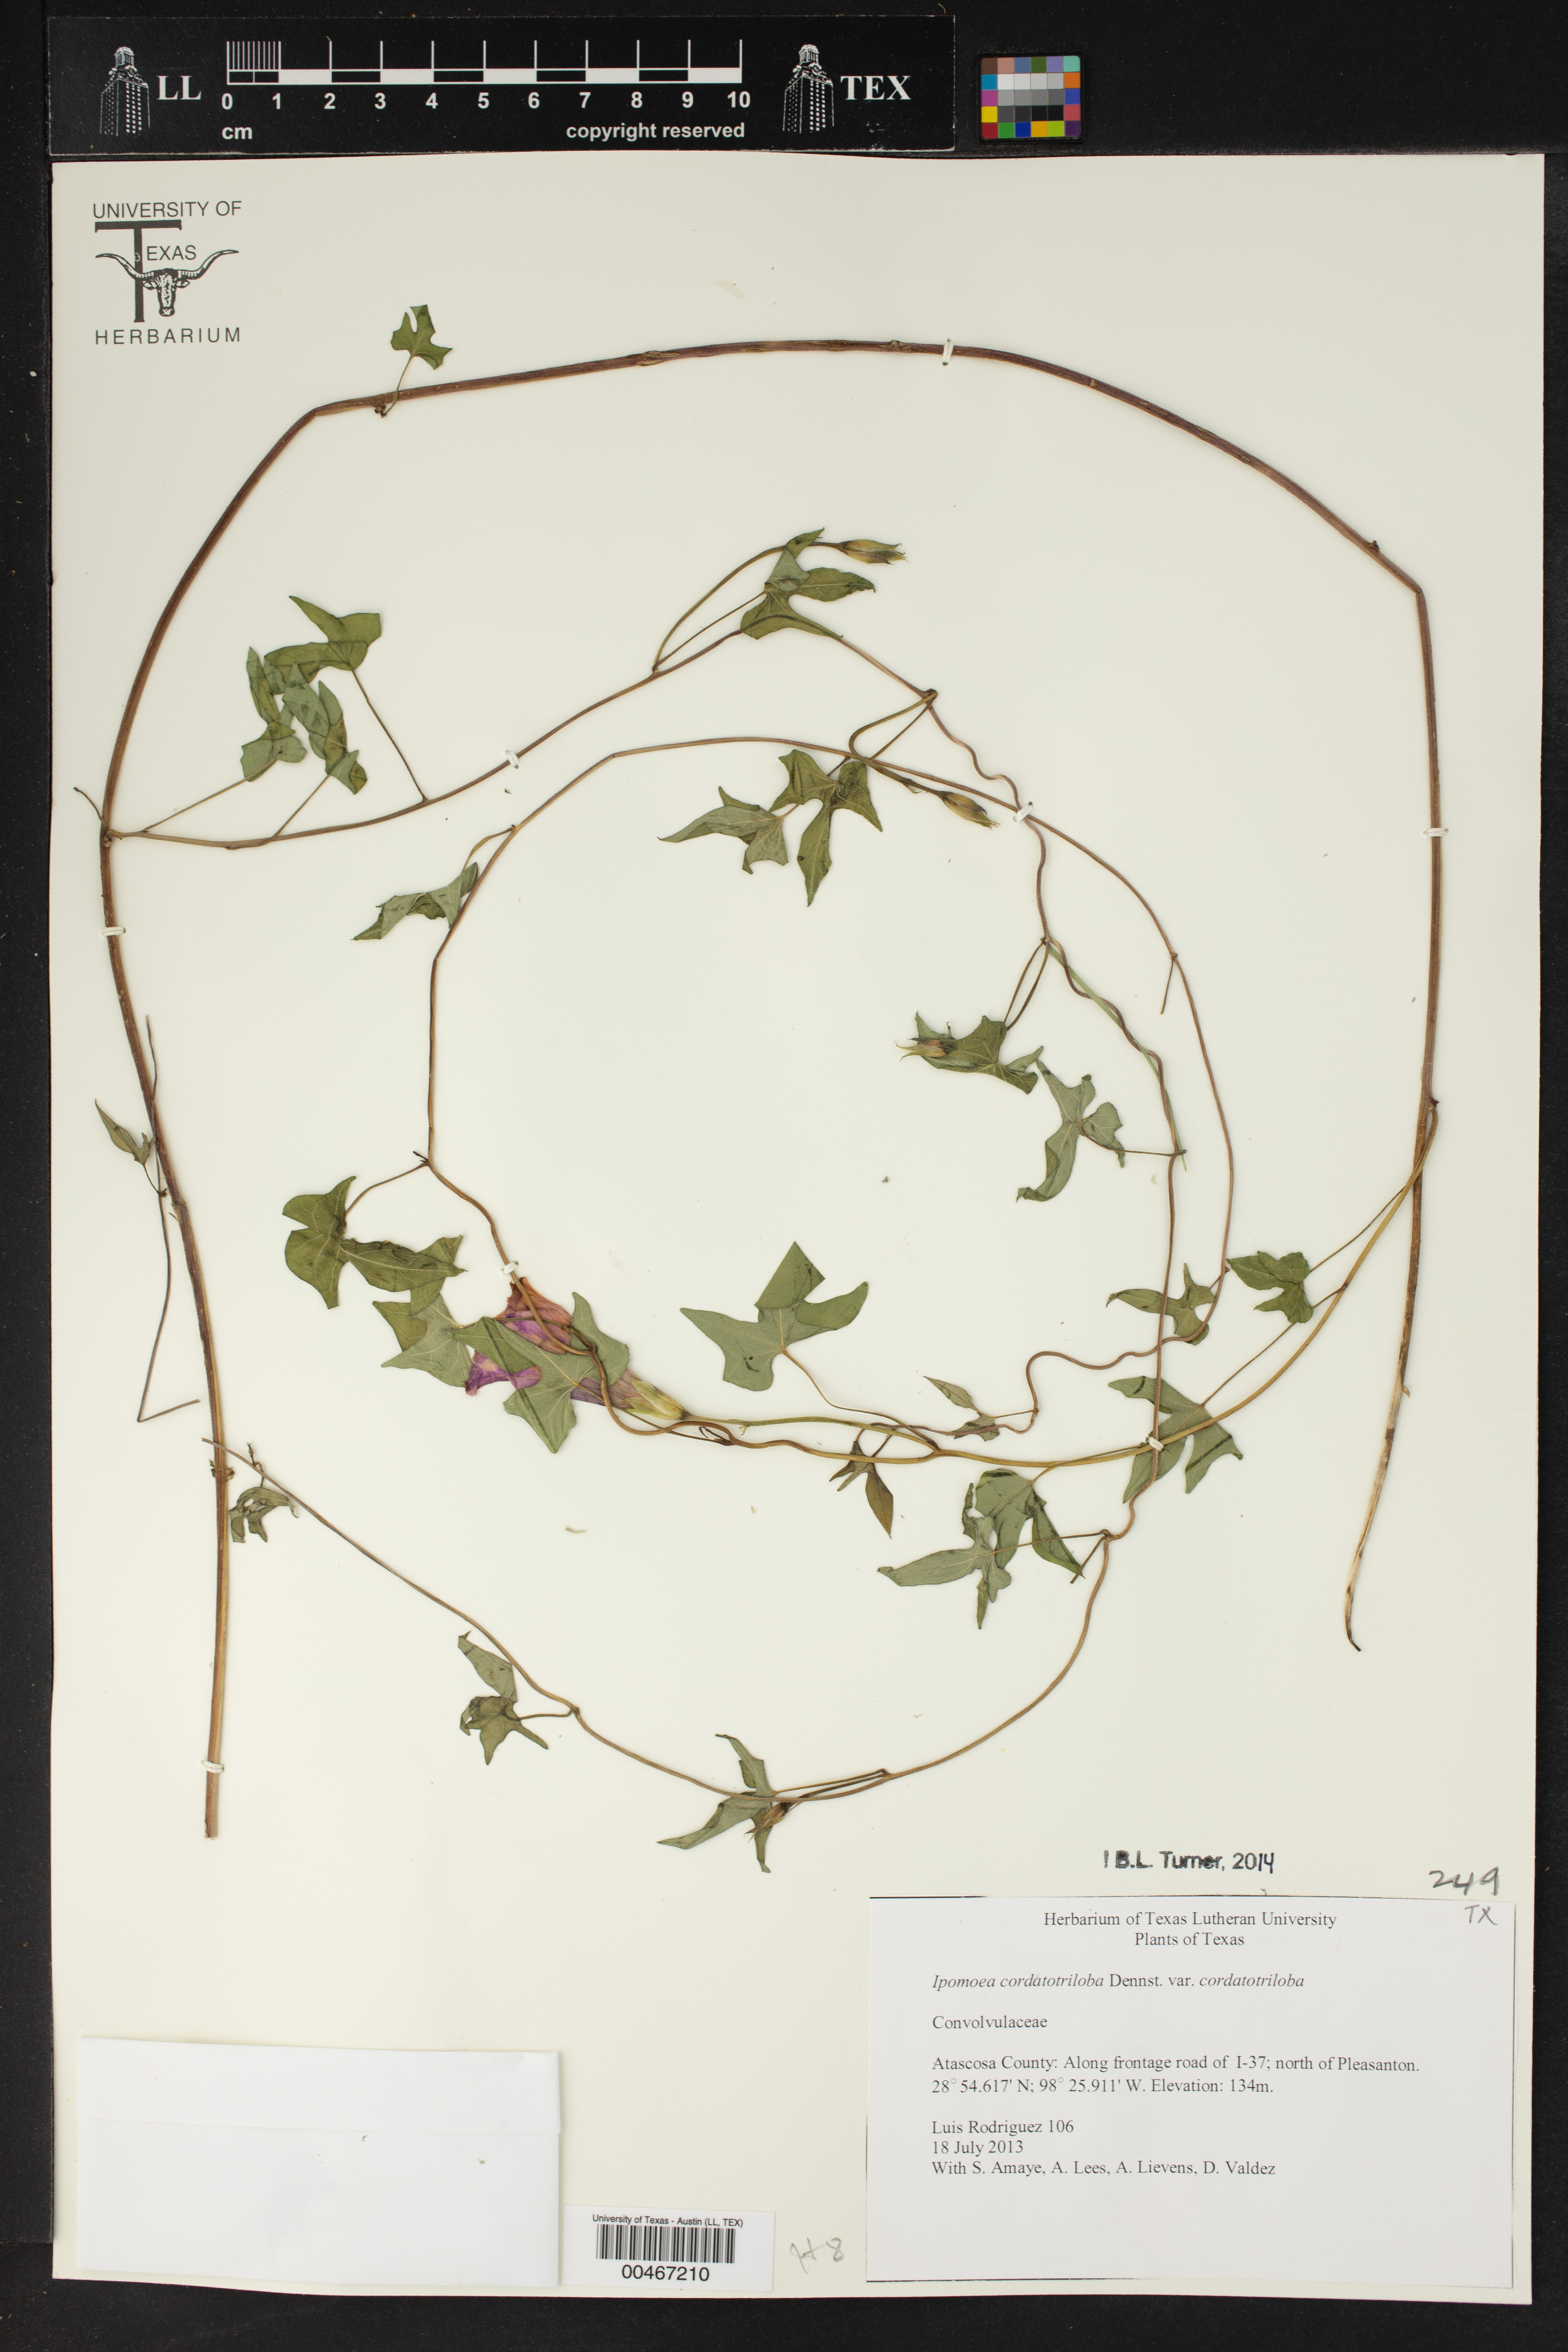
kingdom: Plantae
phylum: Tracheophyta
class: Magnoliopsida
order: Solanales
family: Convolvulaceae
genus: Ipomoea
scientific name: Ipomoea cordatotriloba
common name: Cotton morning glory
